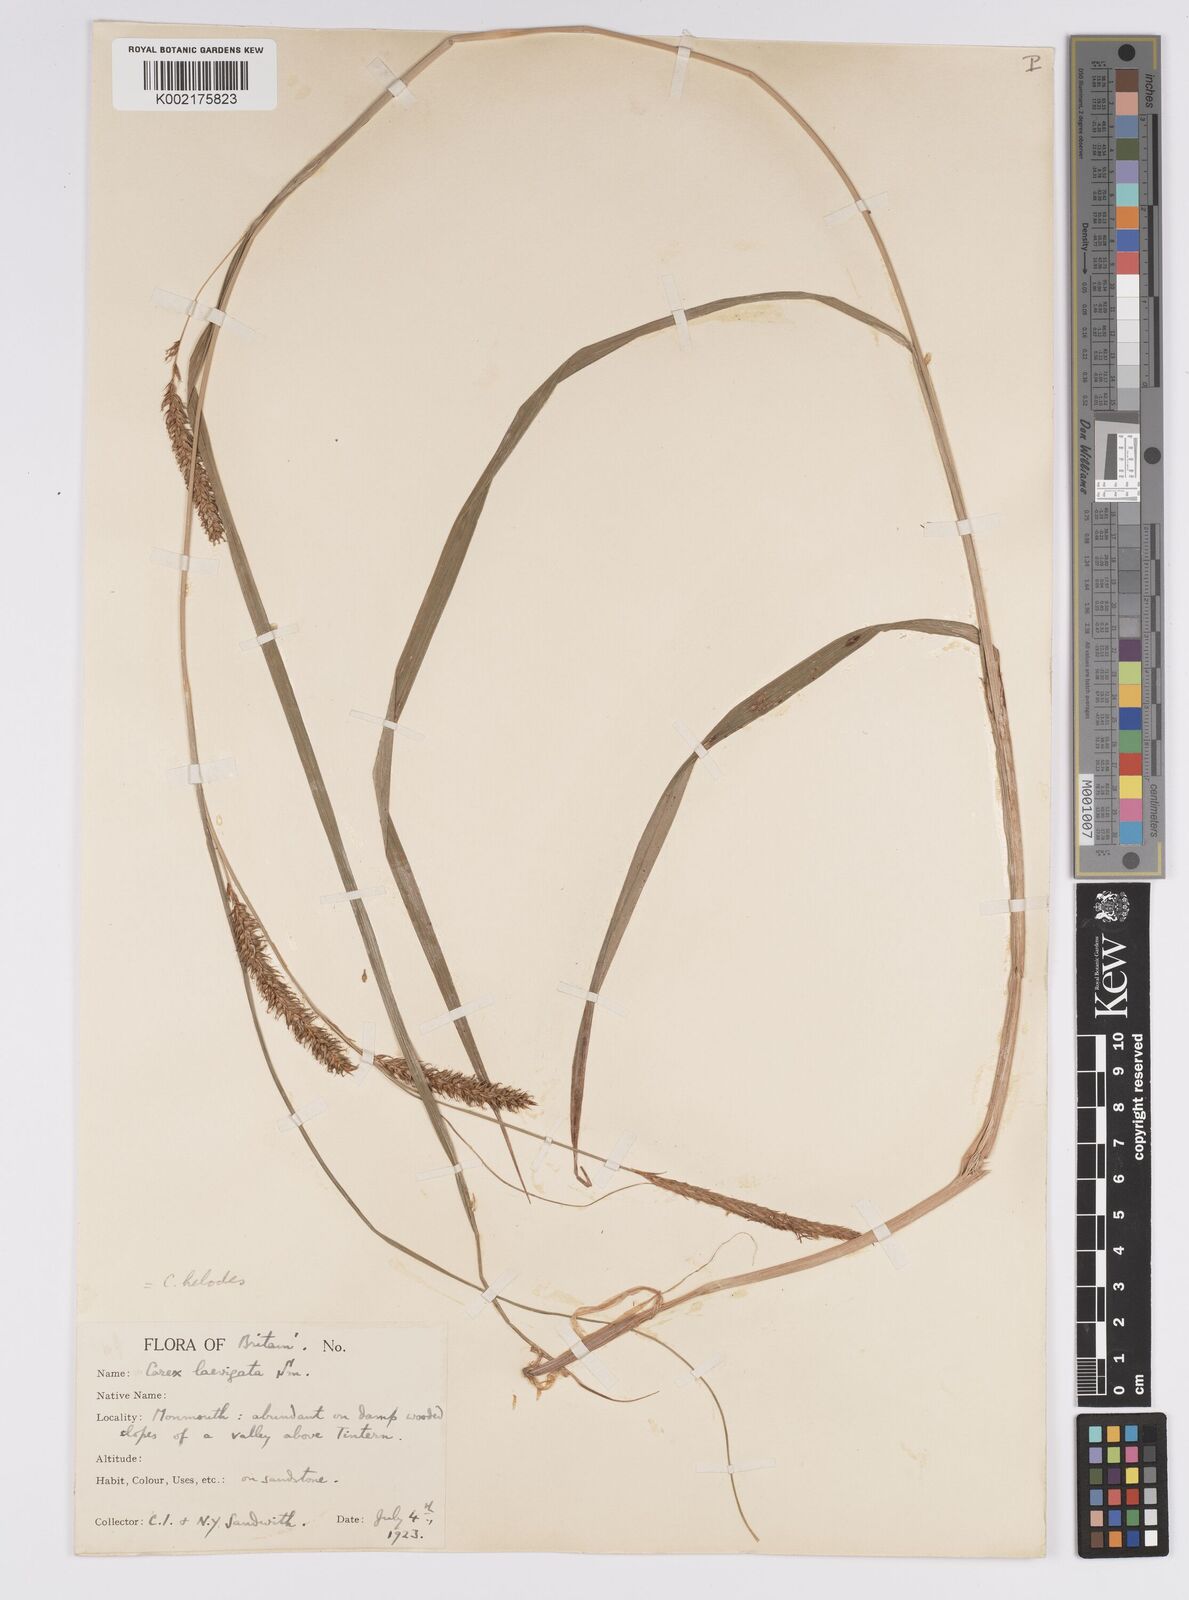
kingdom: Plantae
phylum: Tracheophyta
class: Liliopsida
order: Poales
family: Cyperaceae
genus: Carex
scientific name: Carex laevigata
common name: Smooth-stalked sedge
